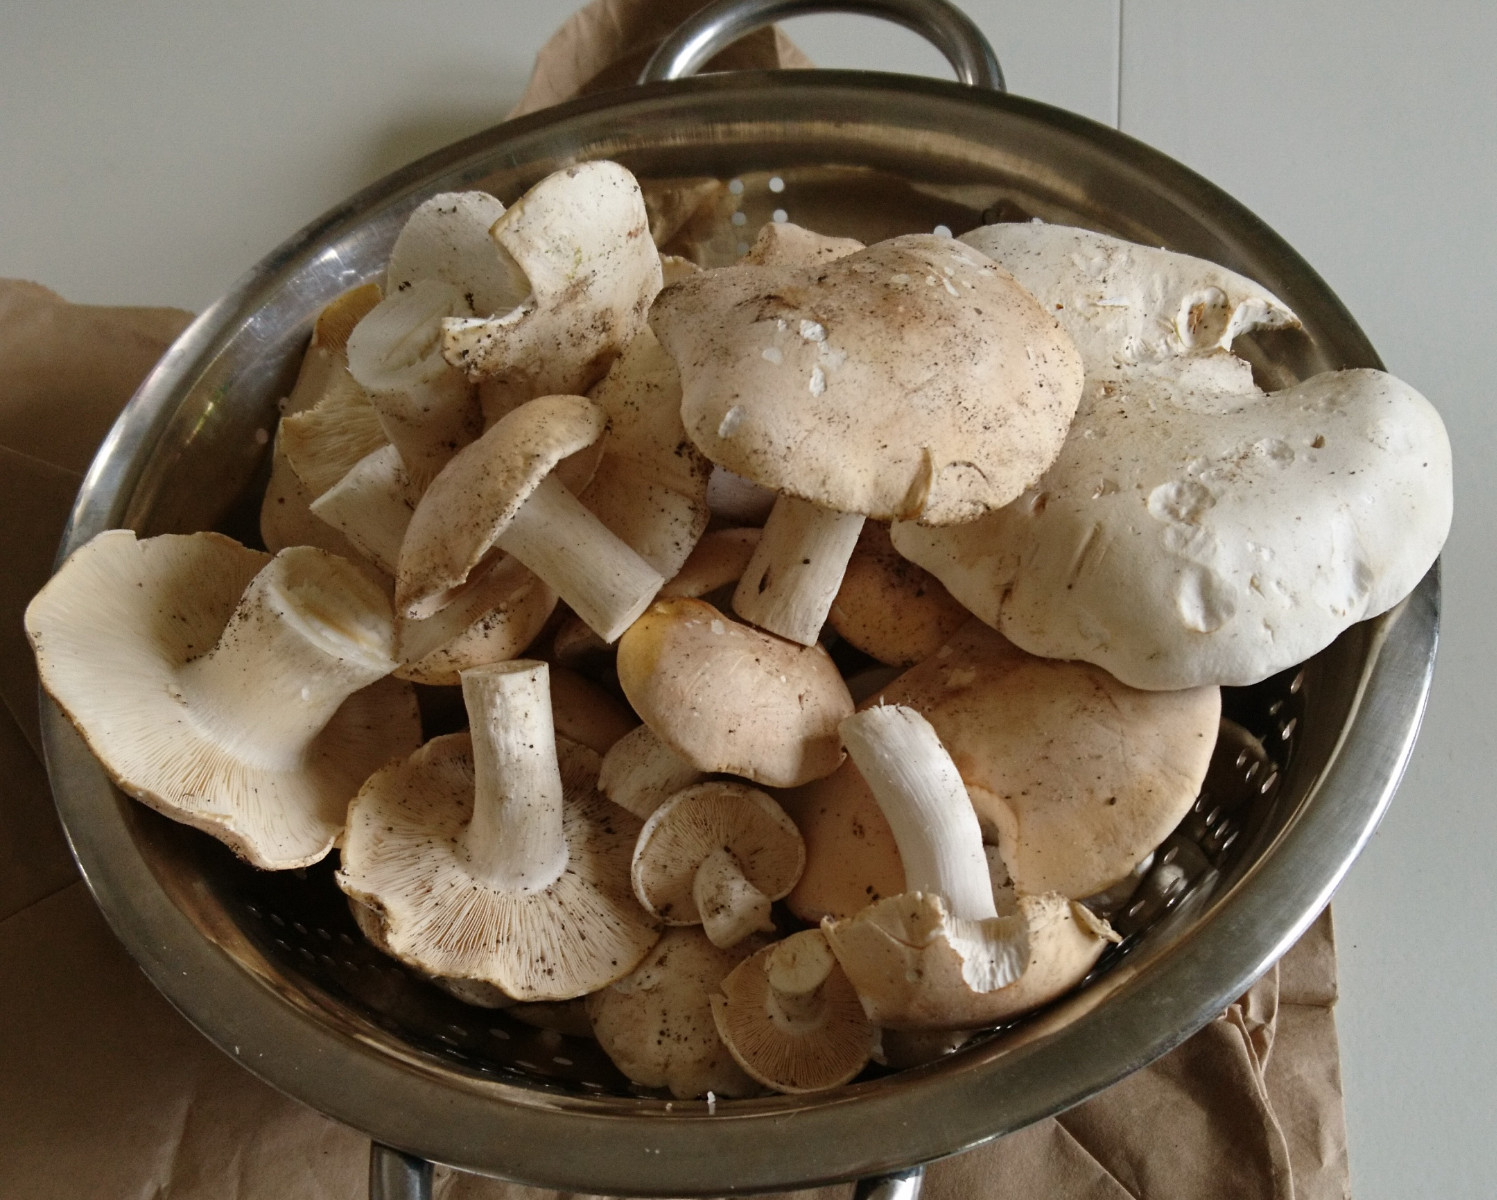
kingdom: Fungi
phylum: Basidiomycota
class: Agaricomycetes
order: Agaricales
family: Lyophyllaceae
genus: Calocybe
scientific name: Calocybe gambosa
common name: vårmusseron
